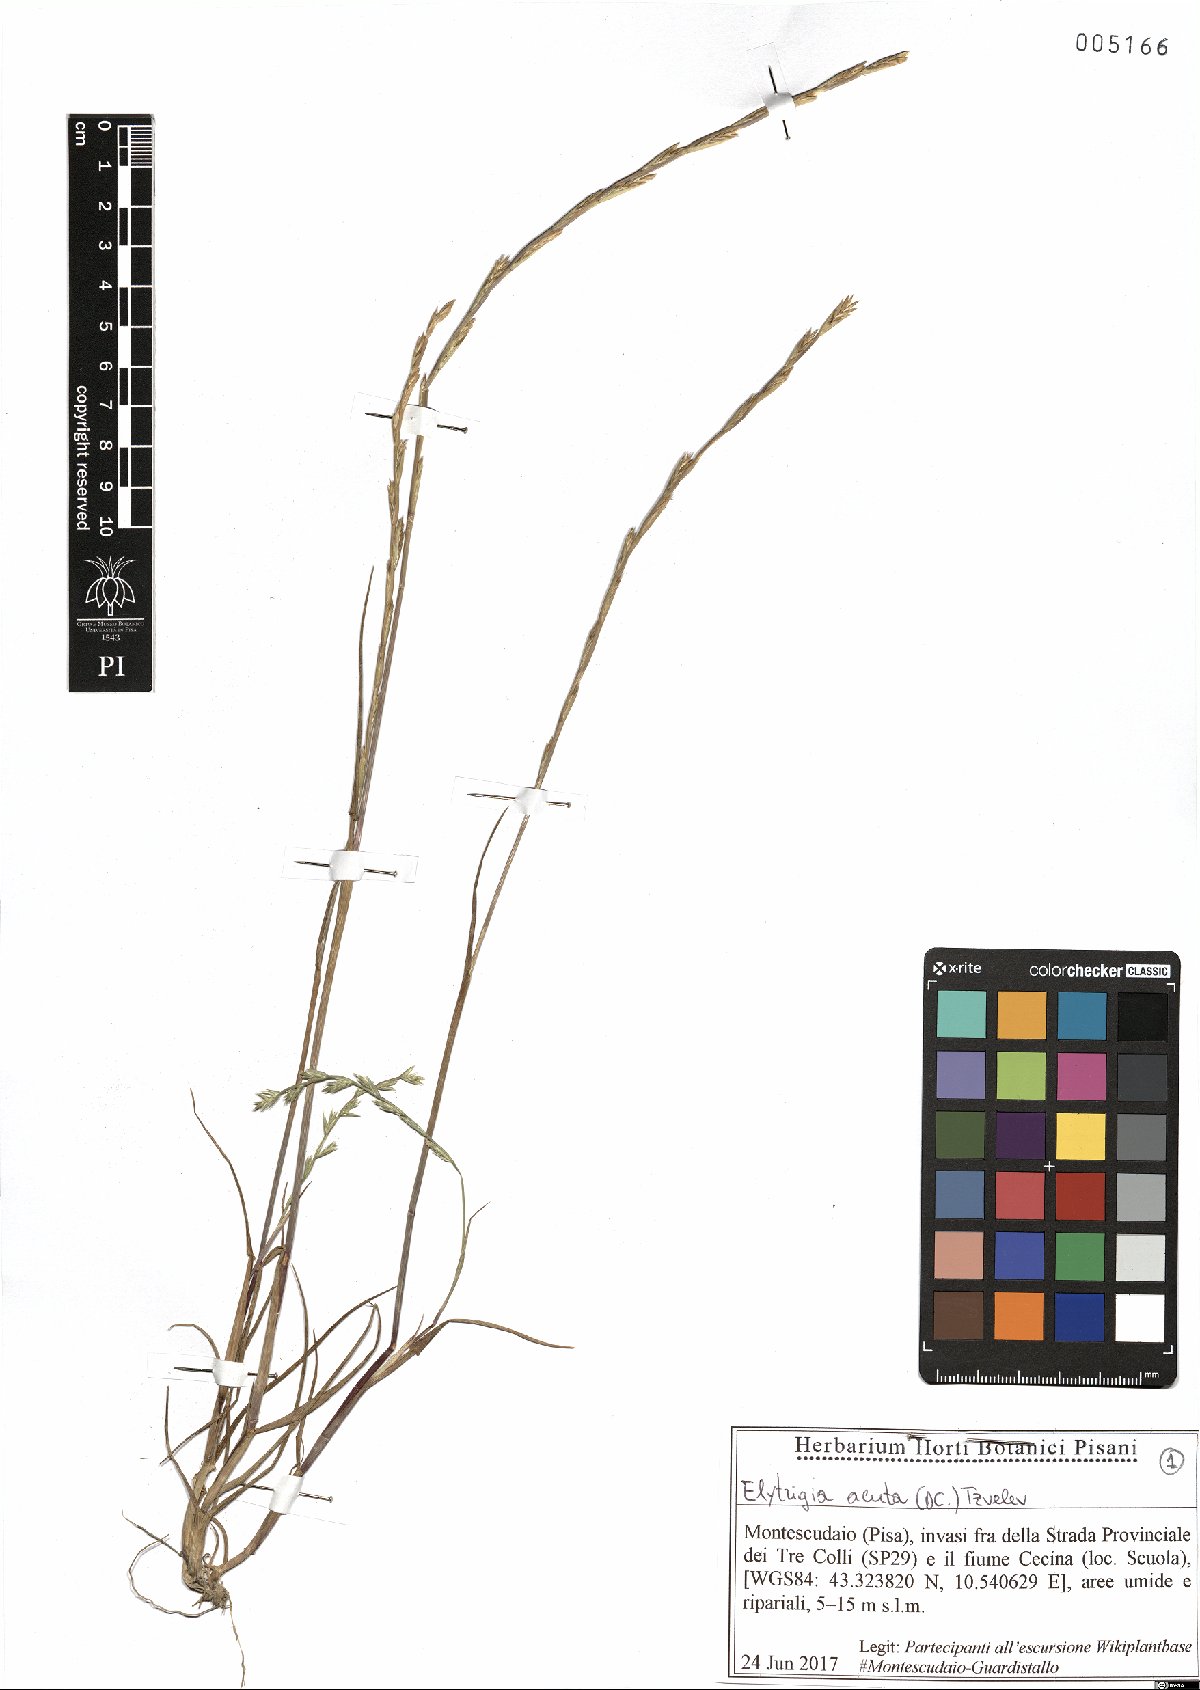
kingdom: Plantae
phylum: Tracheophyta
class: Liliopsida
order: Poales
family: Poaceae
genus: Thinopyrum
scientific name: Thinopyrum acutum
